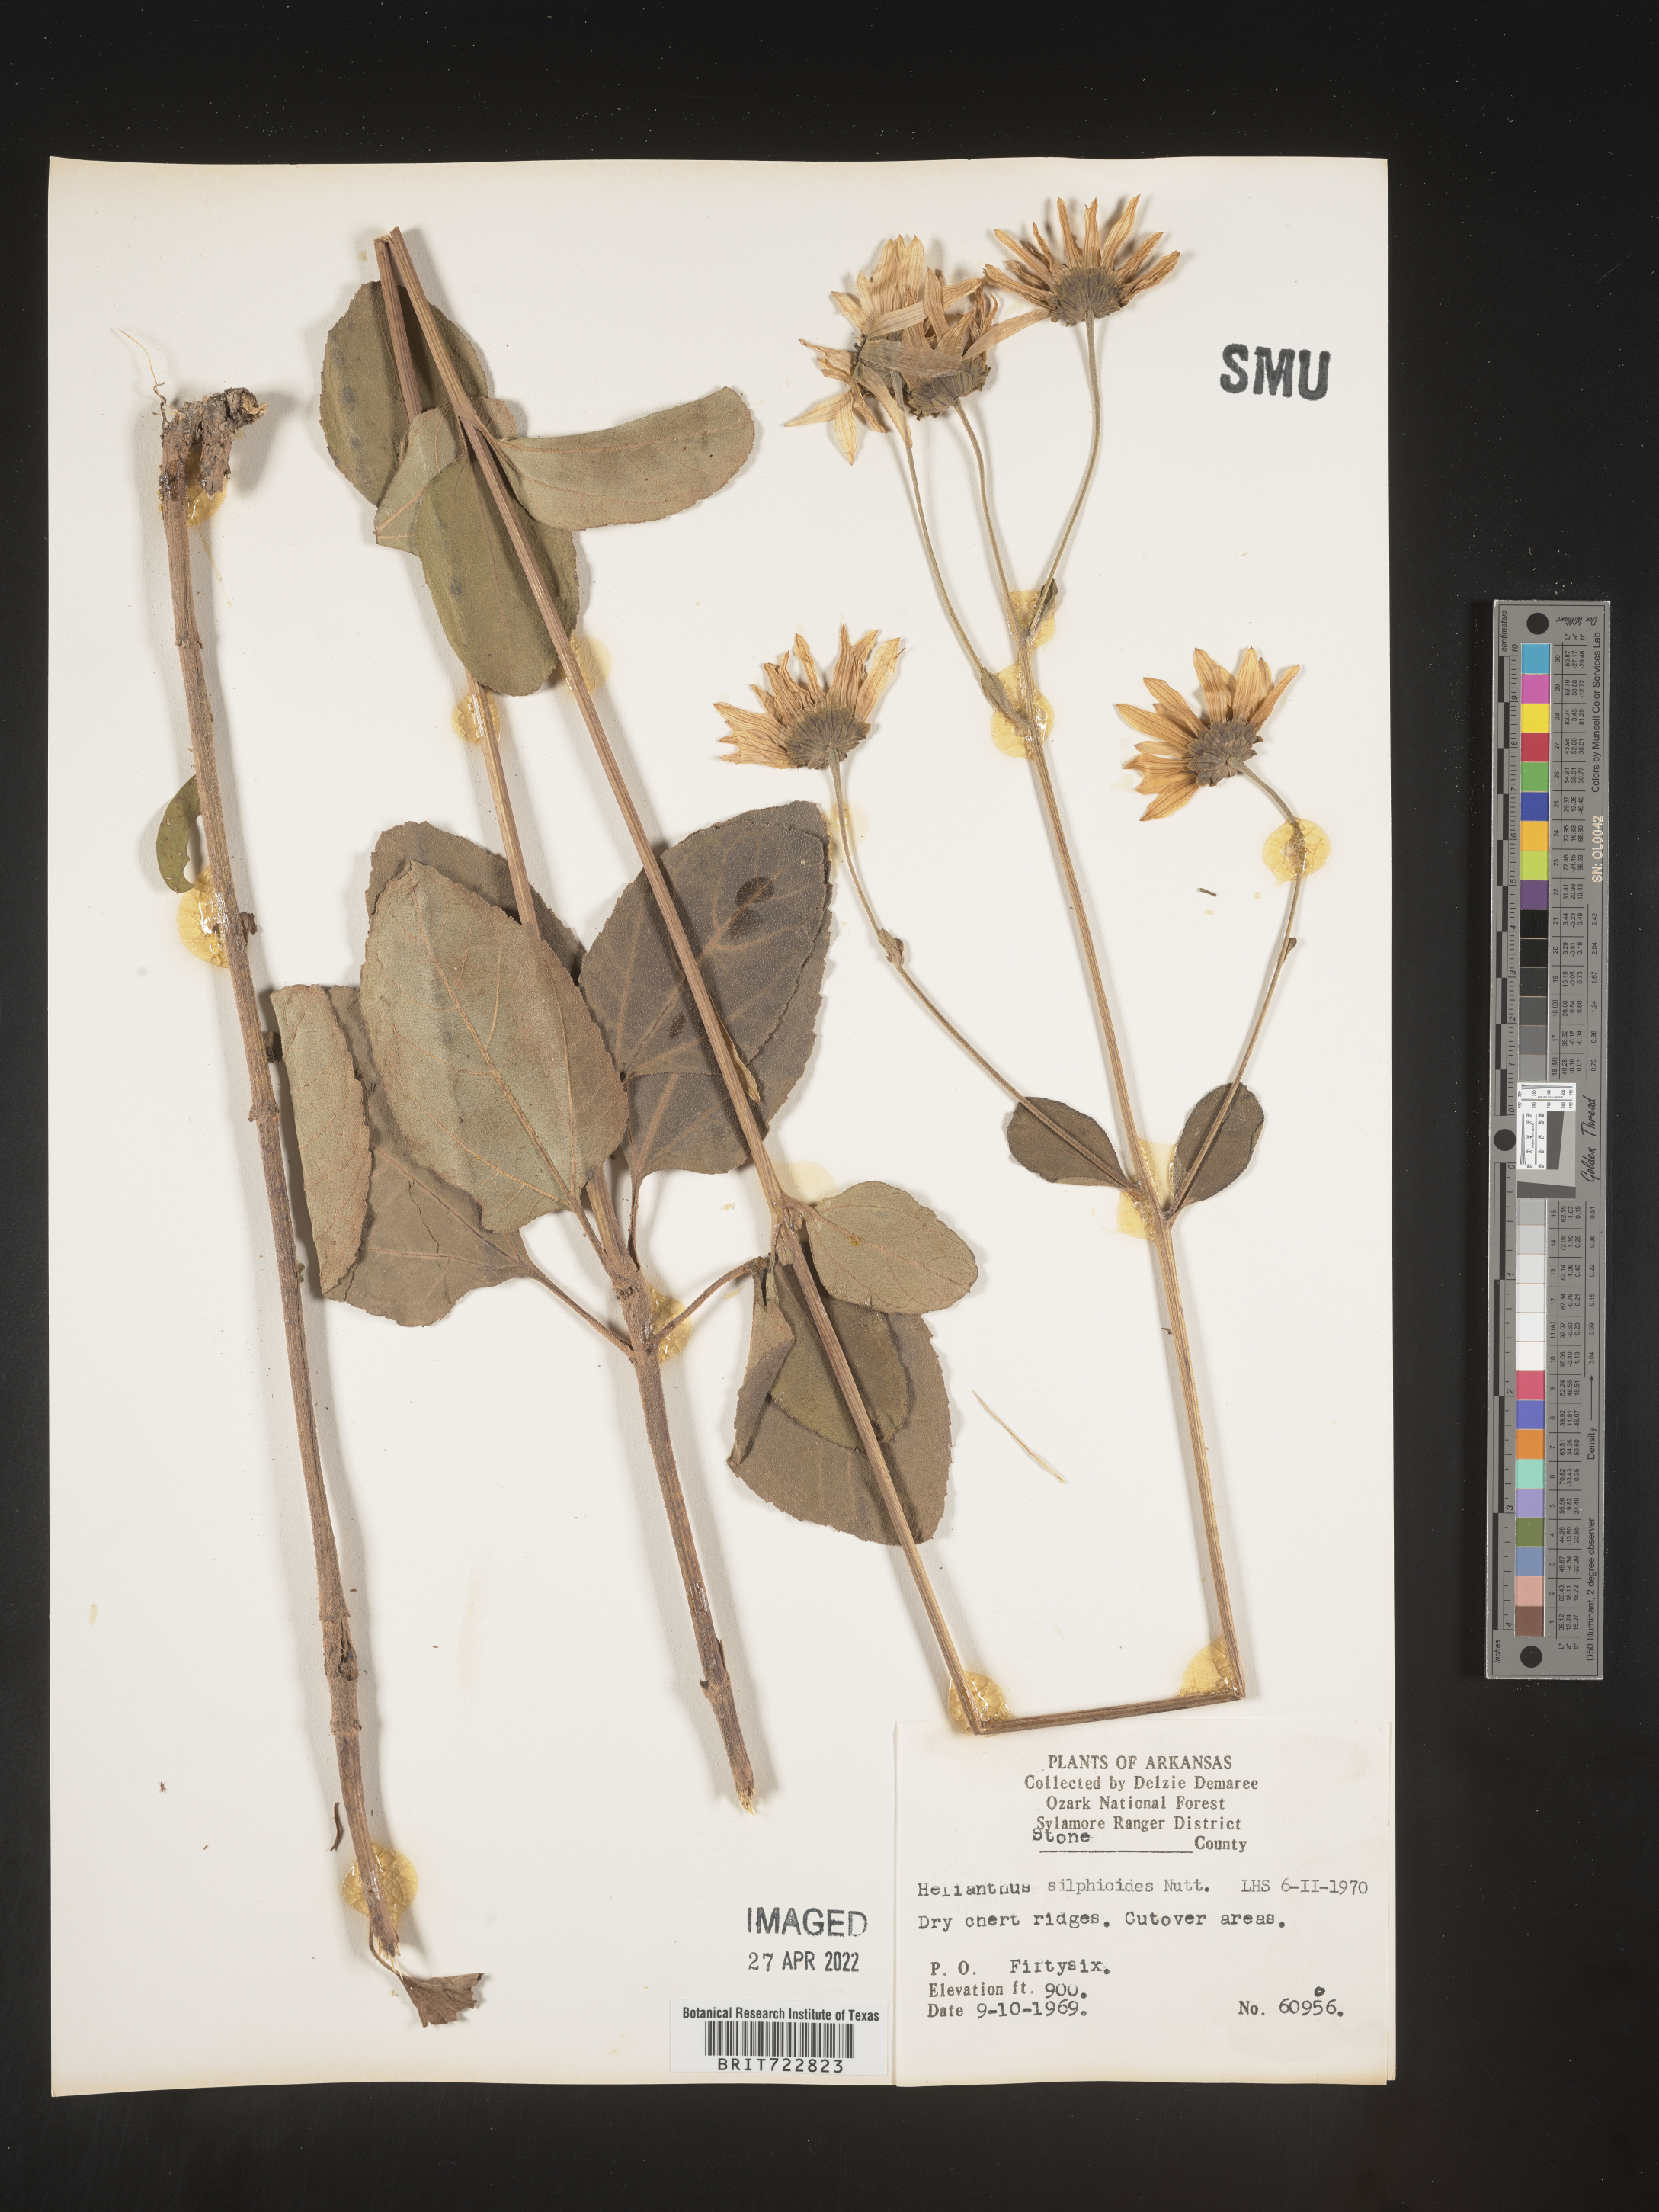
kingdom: Plantae
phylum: Tracheophyta
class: Magnoliopsida
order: Asterales
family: Asteraceae
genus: Helianthus
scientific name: Helianthus silphioides
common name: Odorous sunflower
